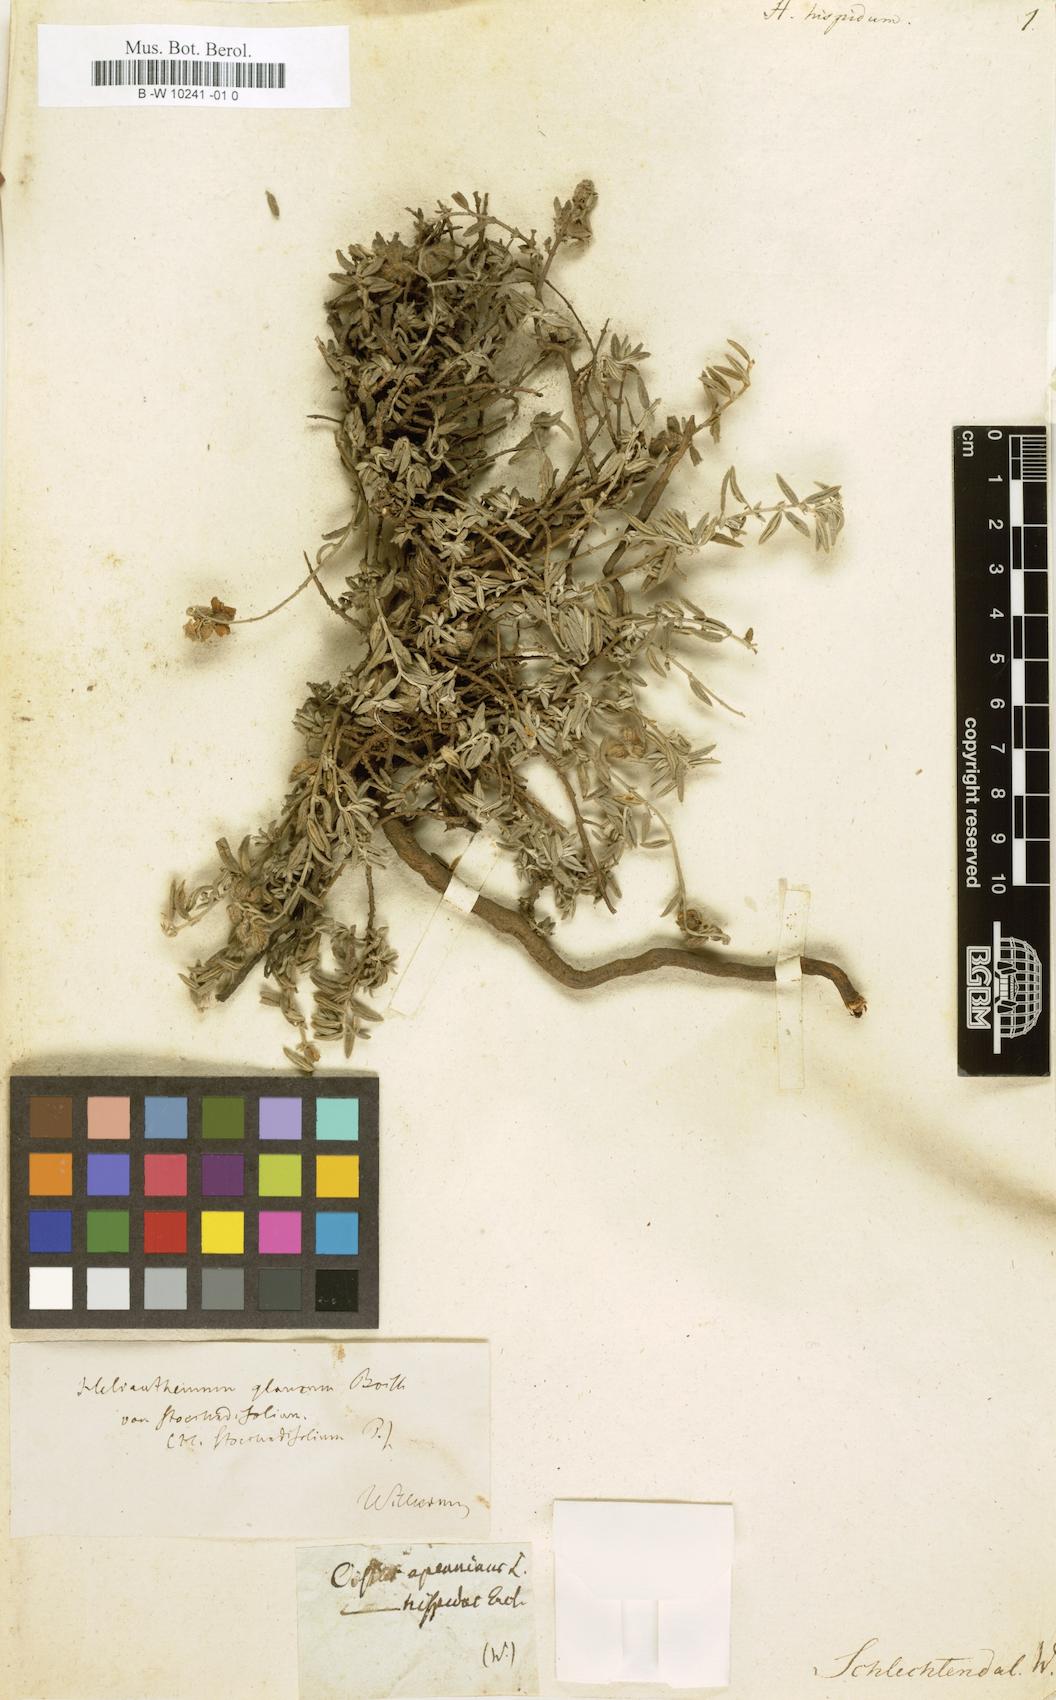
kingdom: Plantae
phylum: Tracheophyta
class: Magnoliopsida
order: Malvales
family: Cistaceae
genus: Helianthemum
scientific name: Helianthemum hispidum
